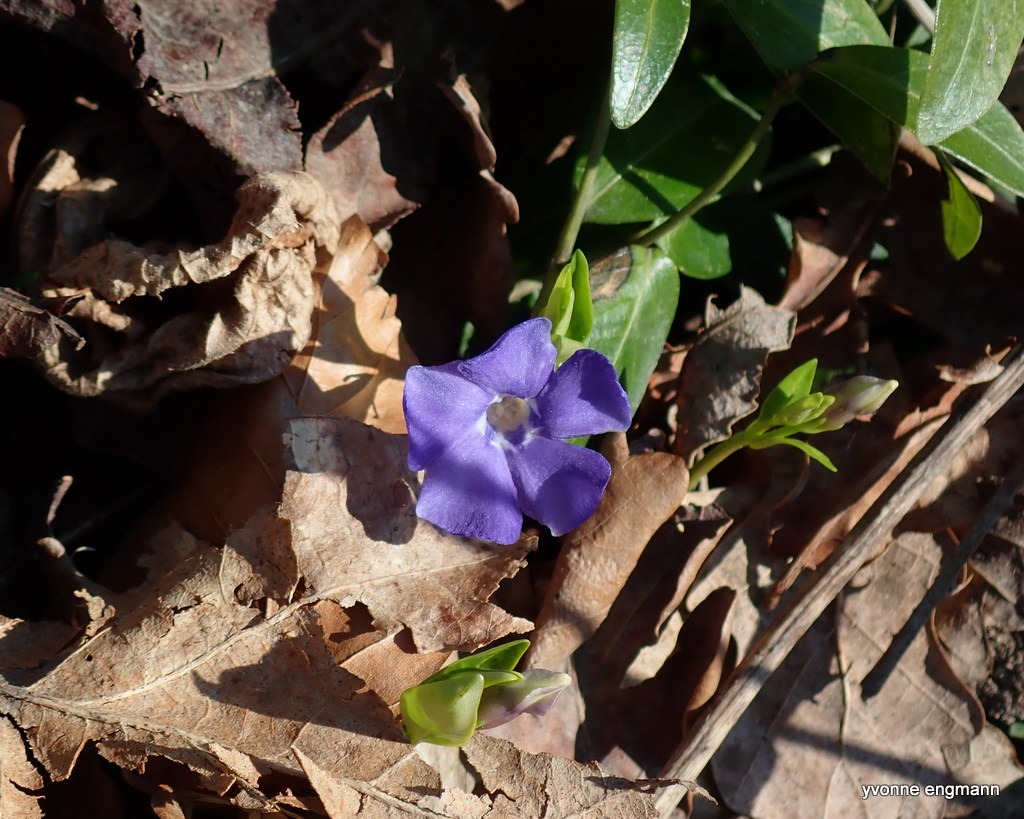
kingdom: Plantae
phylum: Tracheophyta
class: Magnoliopsida
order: Gentianales
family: Apocynaceae
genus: Vinca
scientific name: Vinca minor
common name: Liden singrøn
